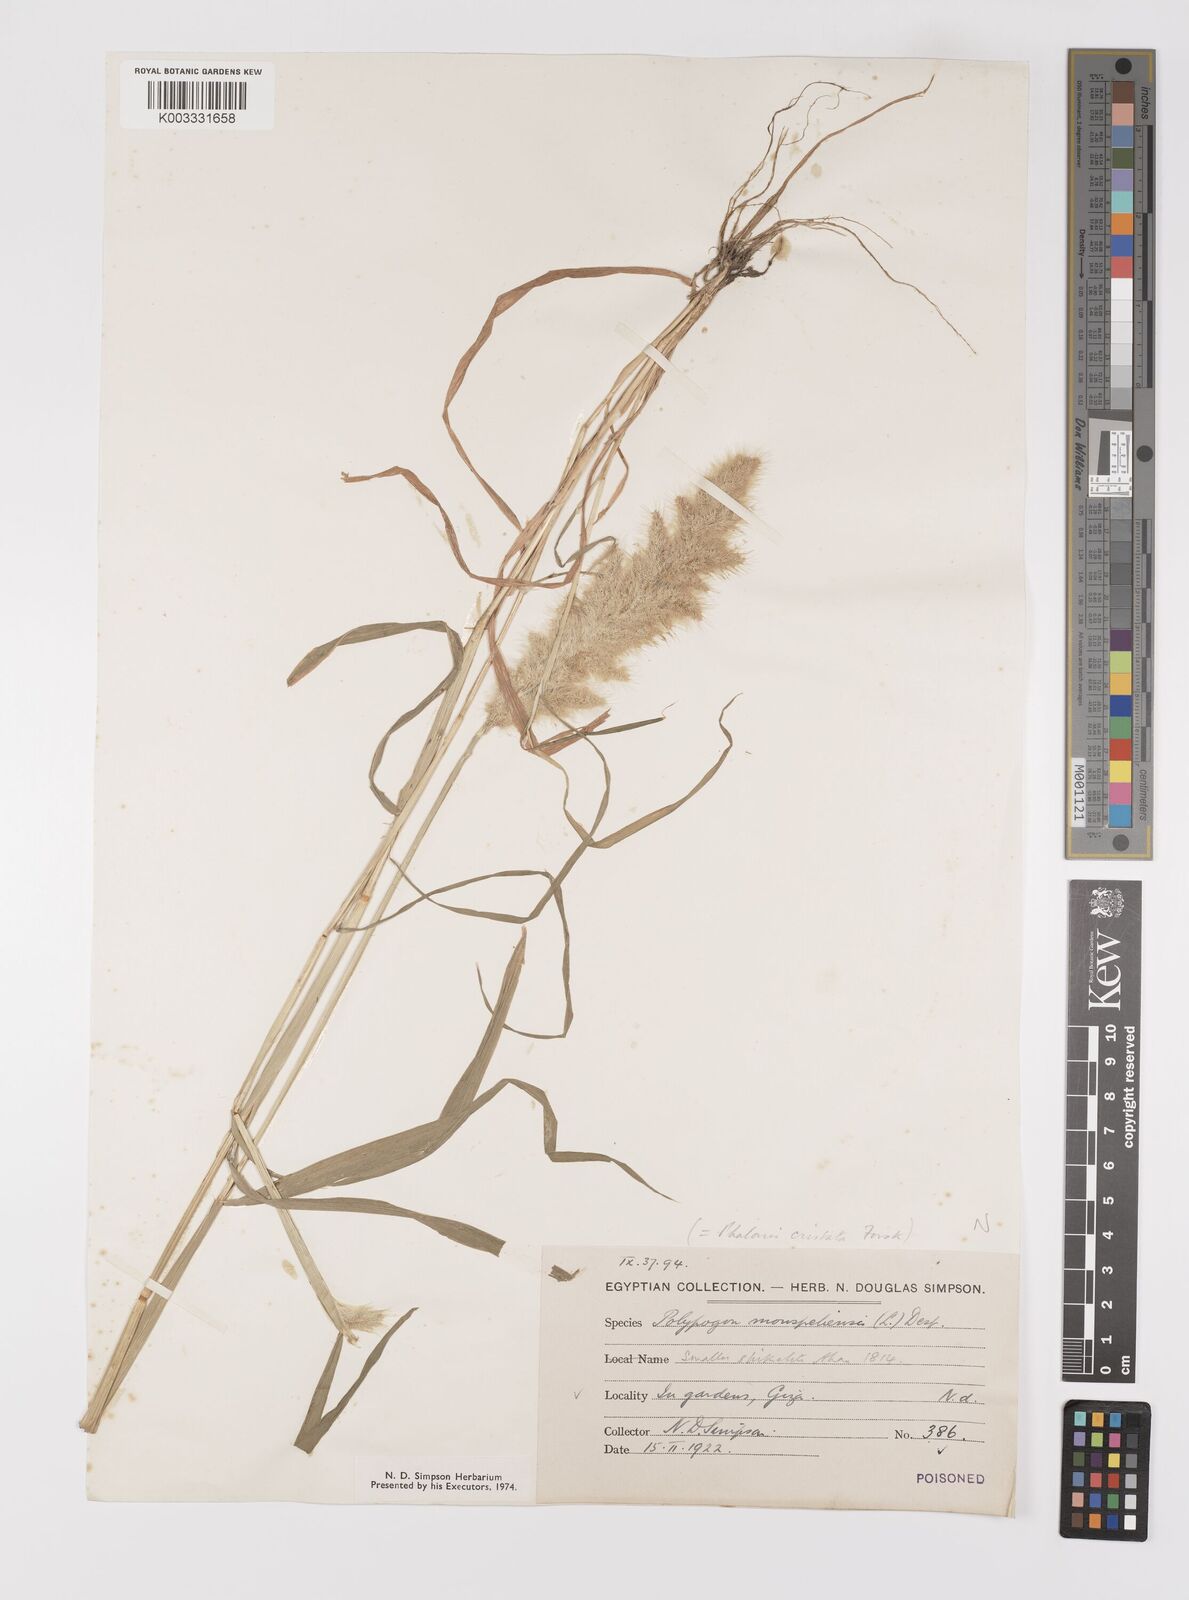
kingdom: Plantae
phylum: Tracheophyta
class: Liliopsida
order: Poales
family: Poaceae
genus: Polypogon
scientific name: Polypogon monspeliensis
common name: Annual rabbitsfoot grass
